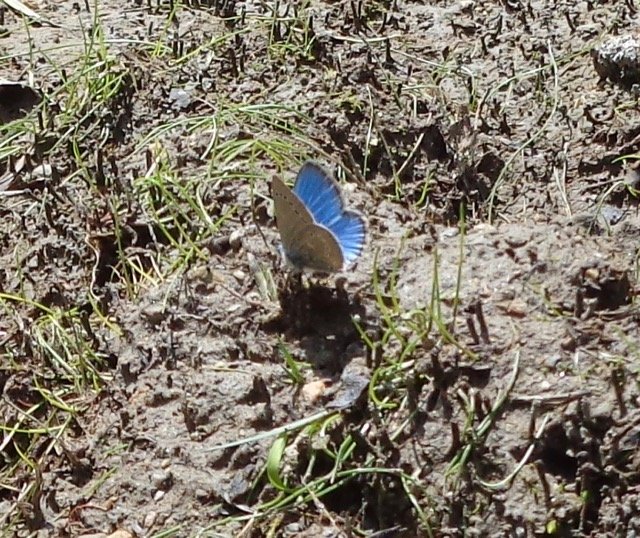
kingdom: Animalia
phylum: Arthropoda
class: Insecta
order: Lepidoptera
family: Lycaenidae
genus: Glaucopsyche
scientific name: Glaucopsyche lygdamus
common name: Silvery Blue
